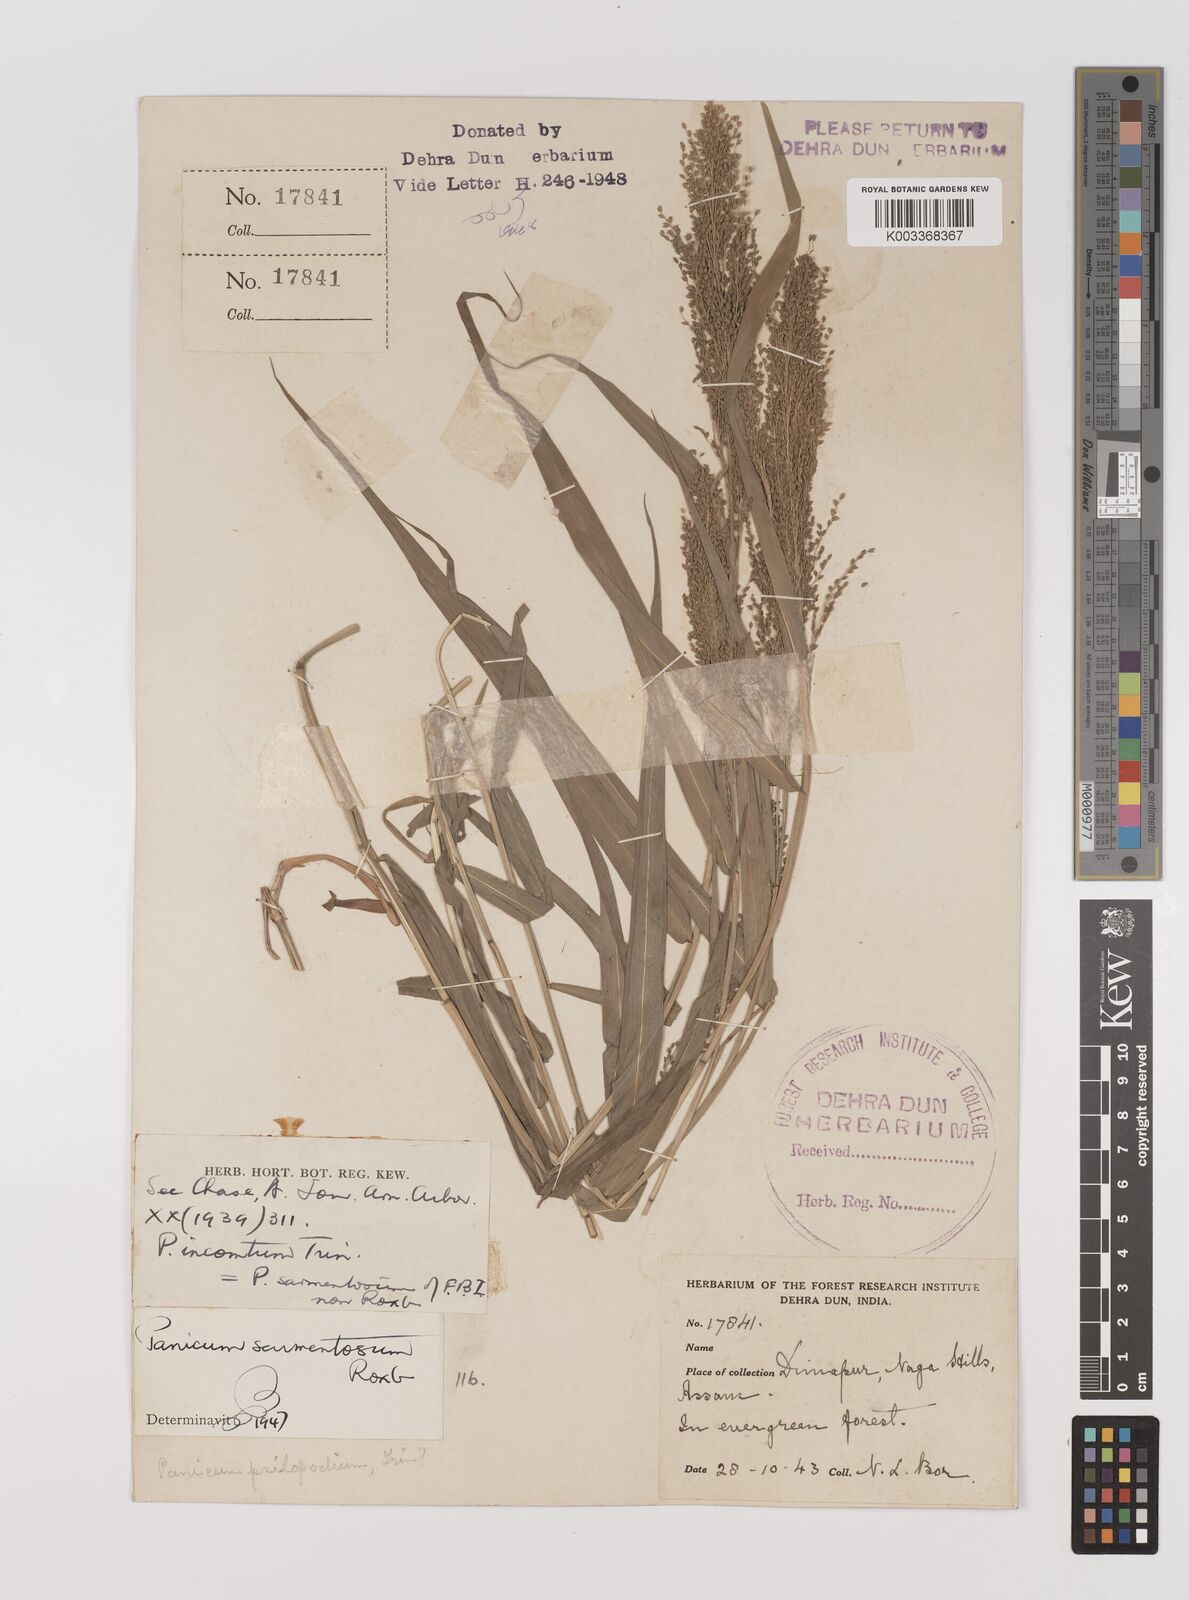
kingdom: Plantae
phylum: Tracheophyta
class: Liliopsida
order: Poales
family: Poaceae
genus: Panicum
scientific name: Panicum sarmentosum
